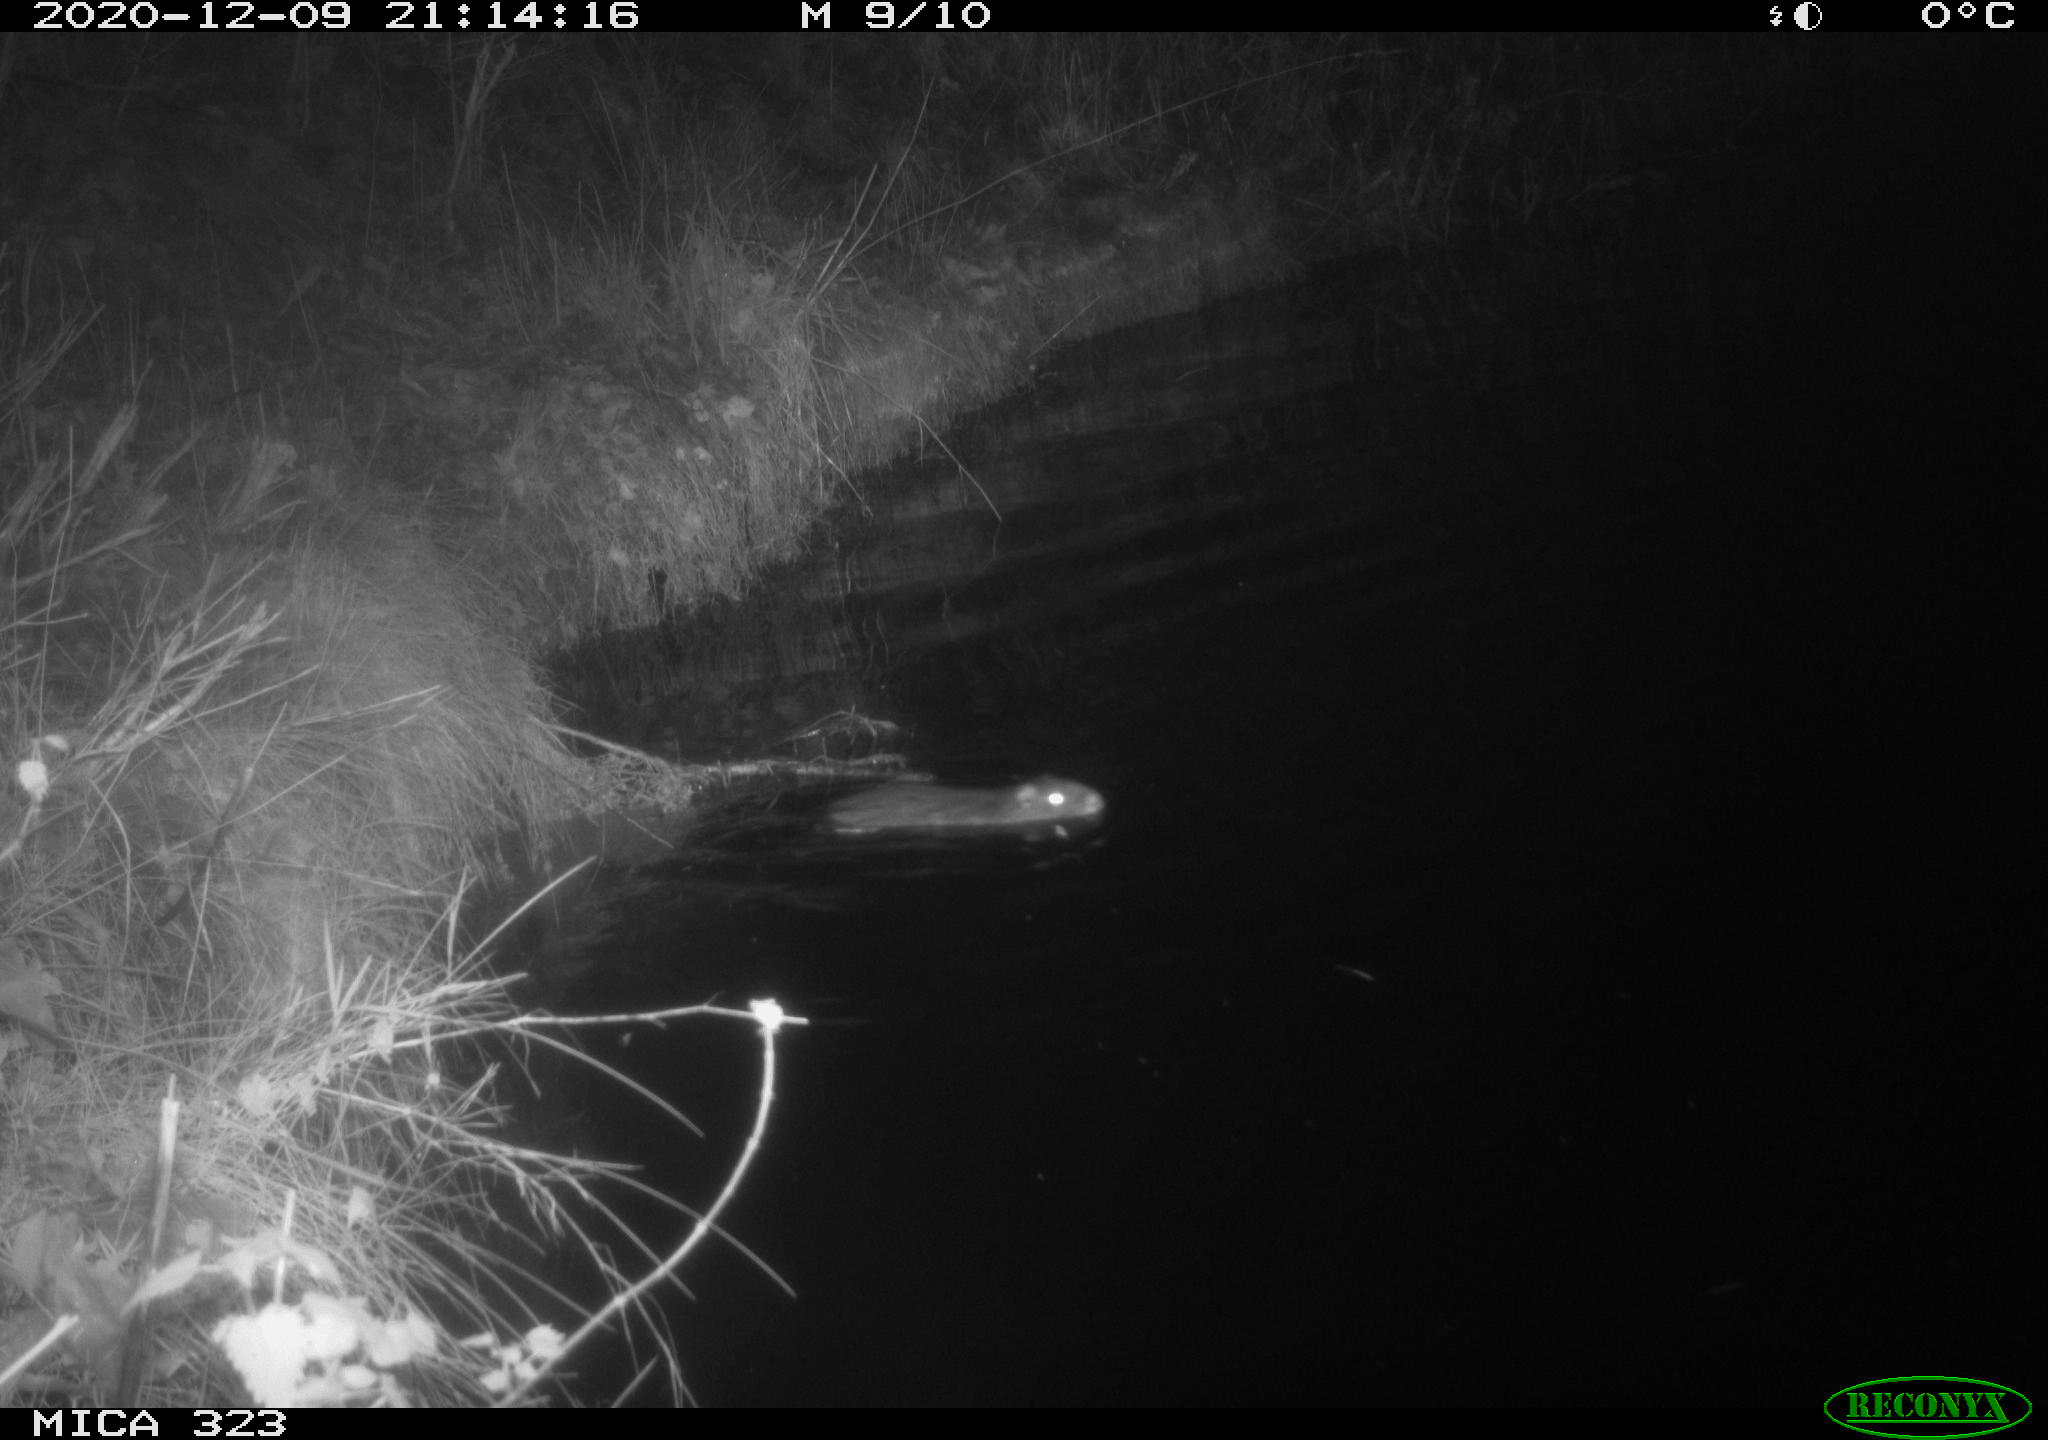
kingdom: Animalia
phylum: Chordata
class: Mammalia
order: Rodentia
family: Myocastoridae
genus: Myocastor
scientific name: Myocastor coypus
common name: Coypu
